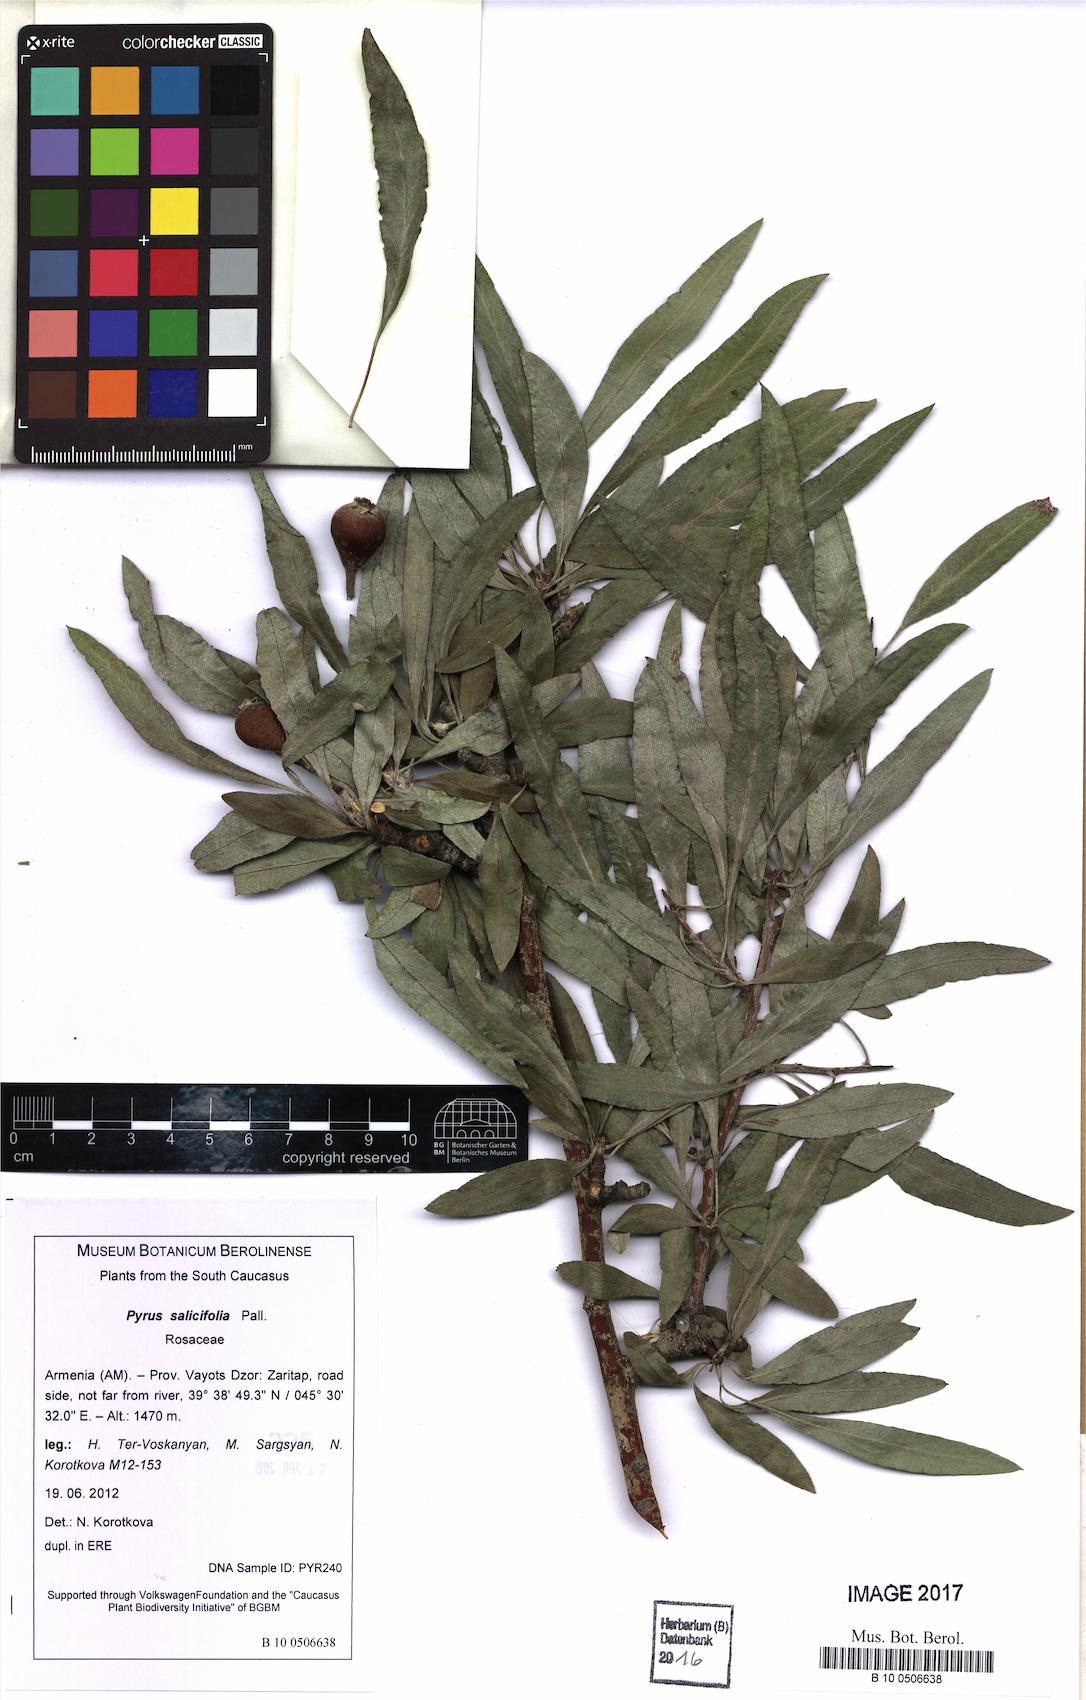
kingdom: Plantae
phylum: Tracheophyta
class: Magnoliopsida
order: Rosales
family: Rosaceae
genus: Pyrus
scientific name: Pyrus salicifolia
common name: Willow-leaved pear
